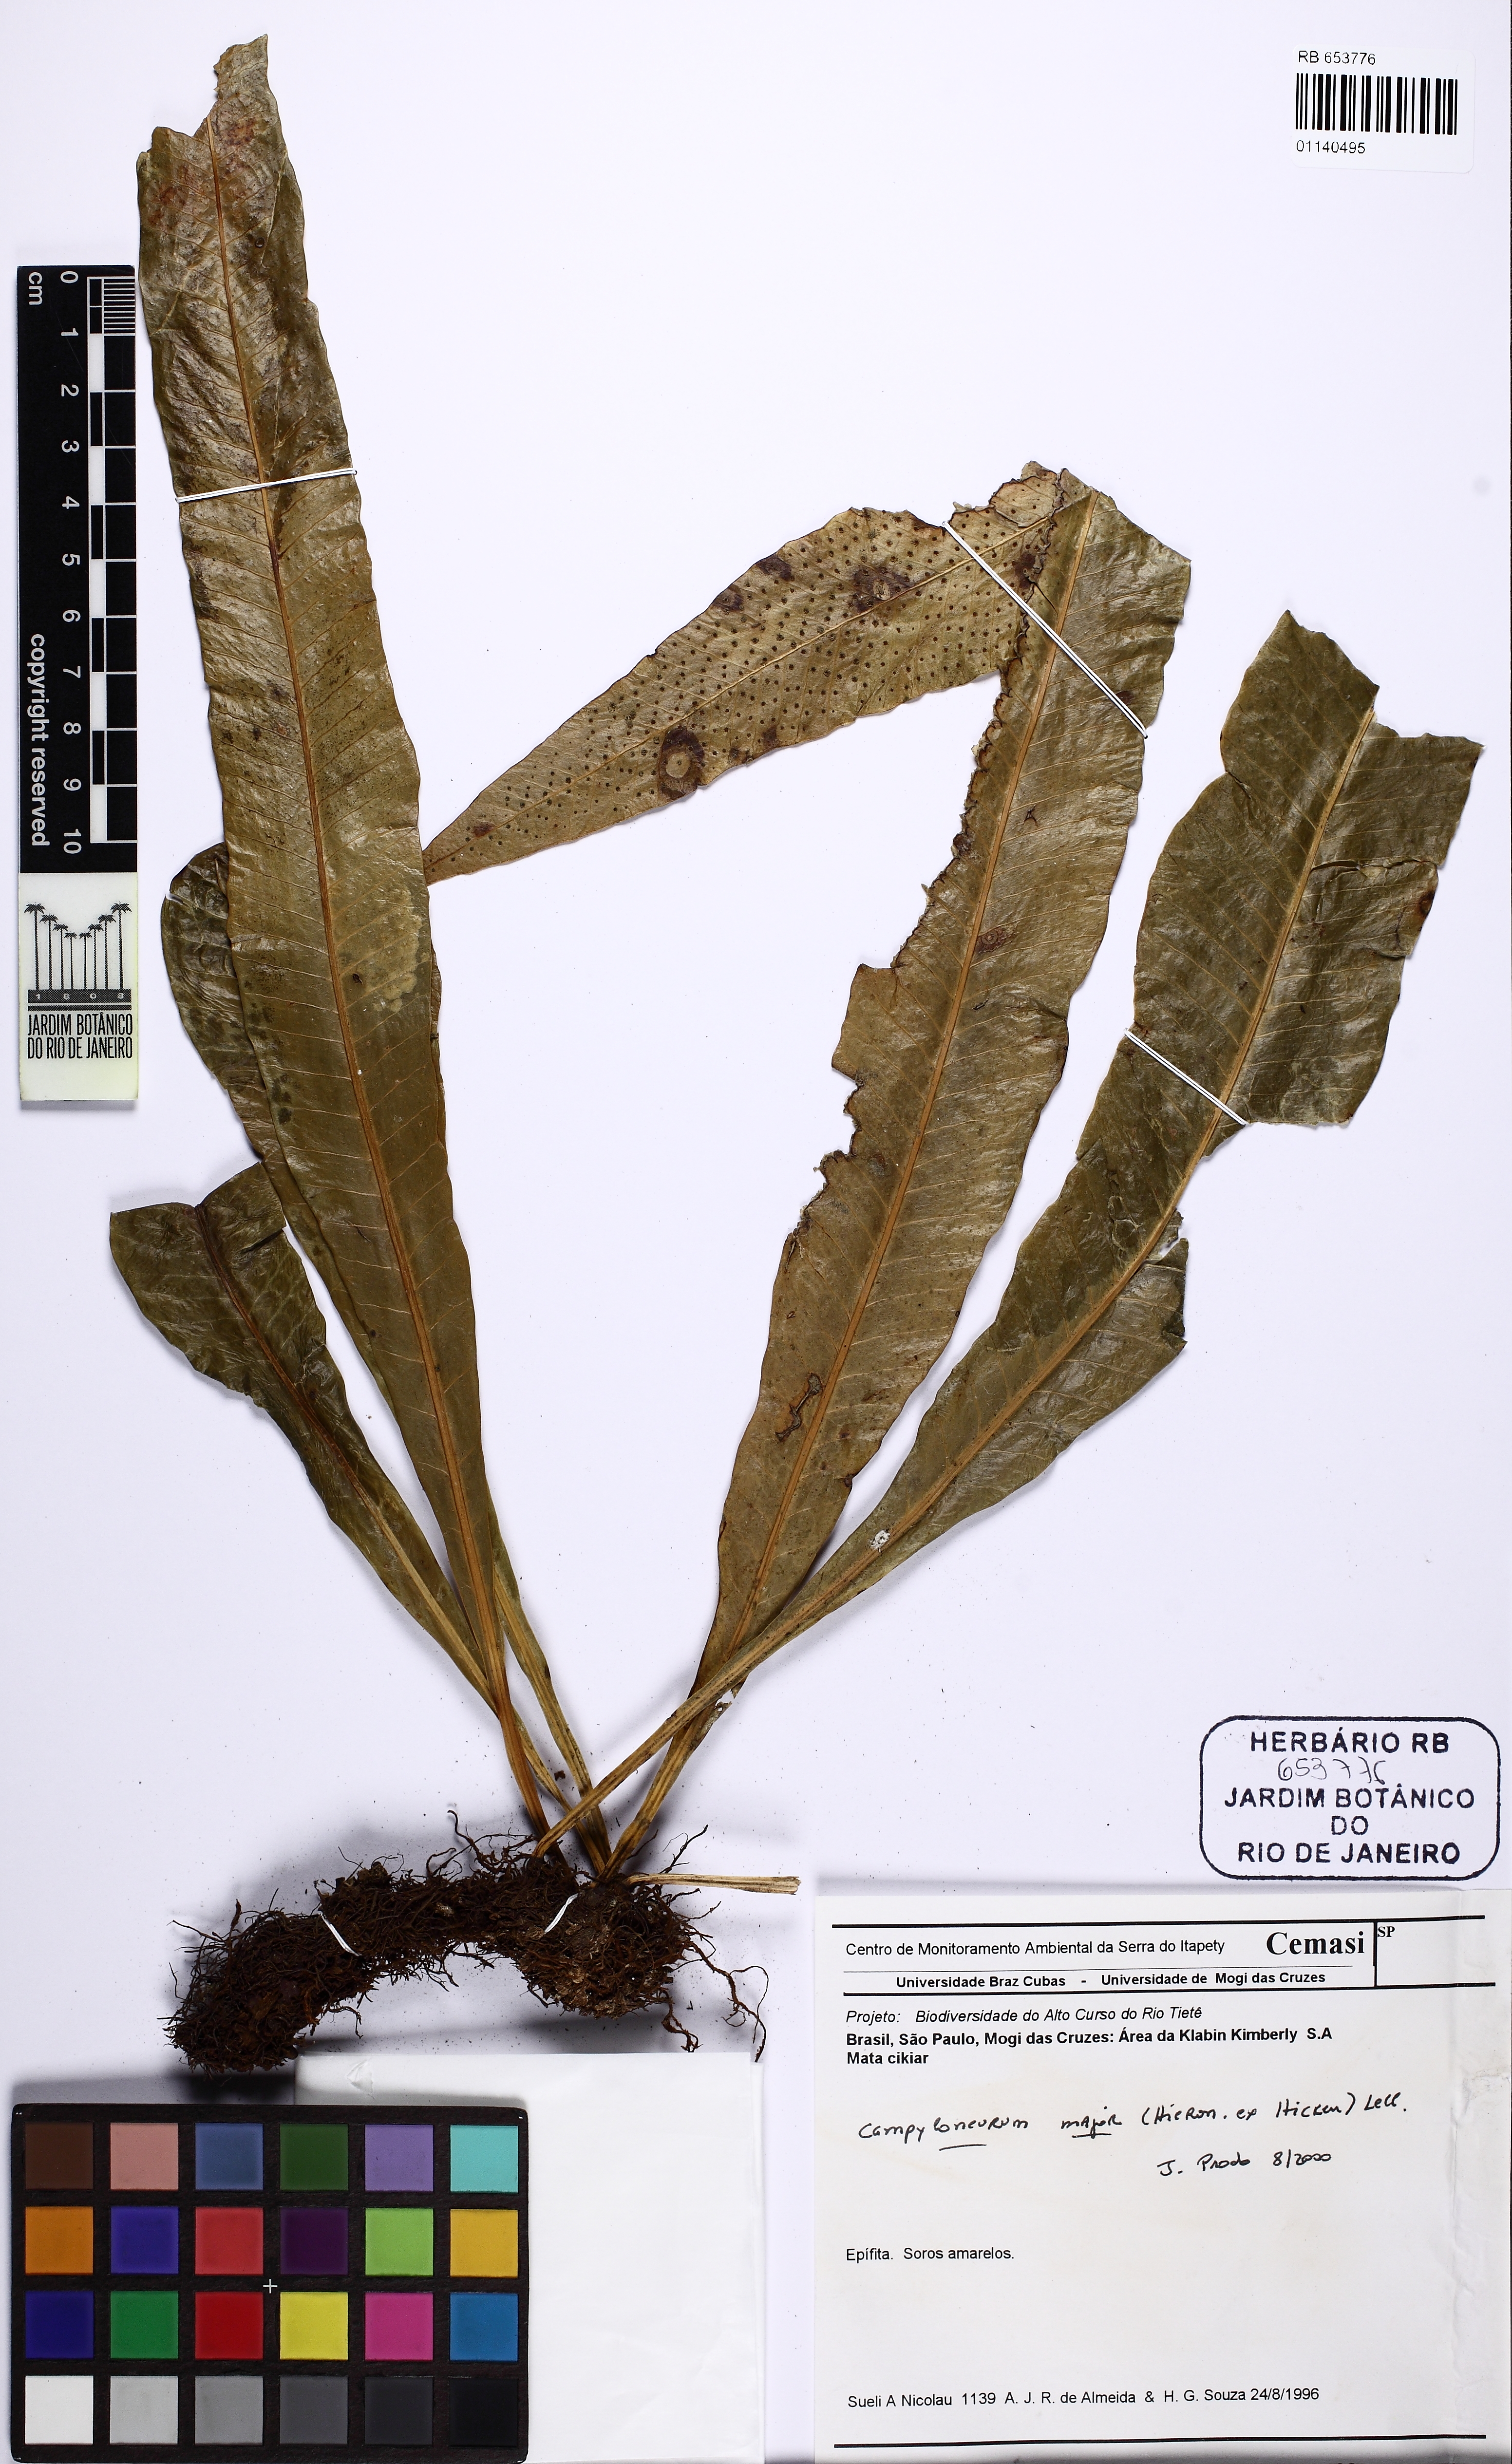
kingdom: Plantae
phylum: Tracheophyta
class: Polypodiopsida
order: Polypodiales
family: Polypodiaceae
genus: Campyloneurum
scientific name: Campyloneurum majus
